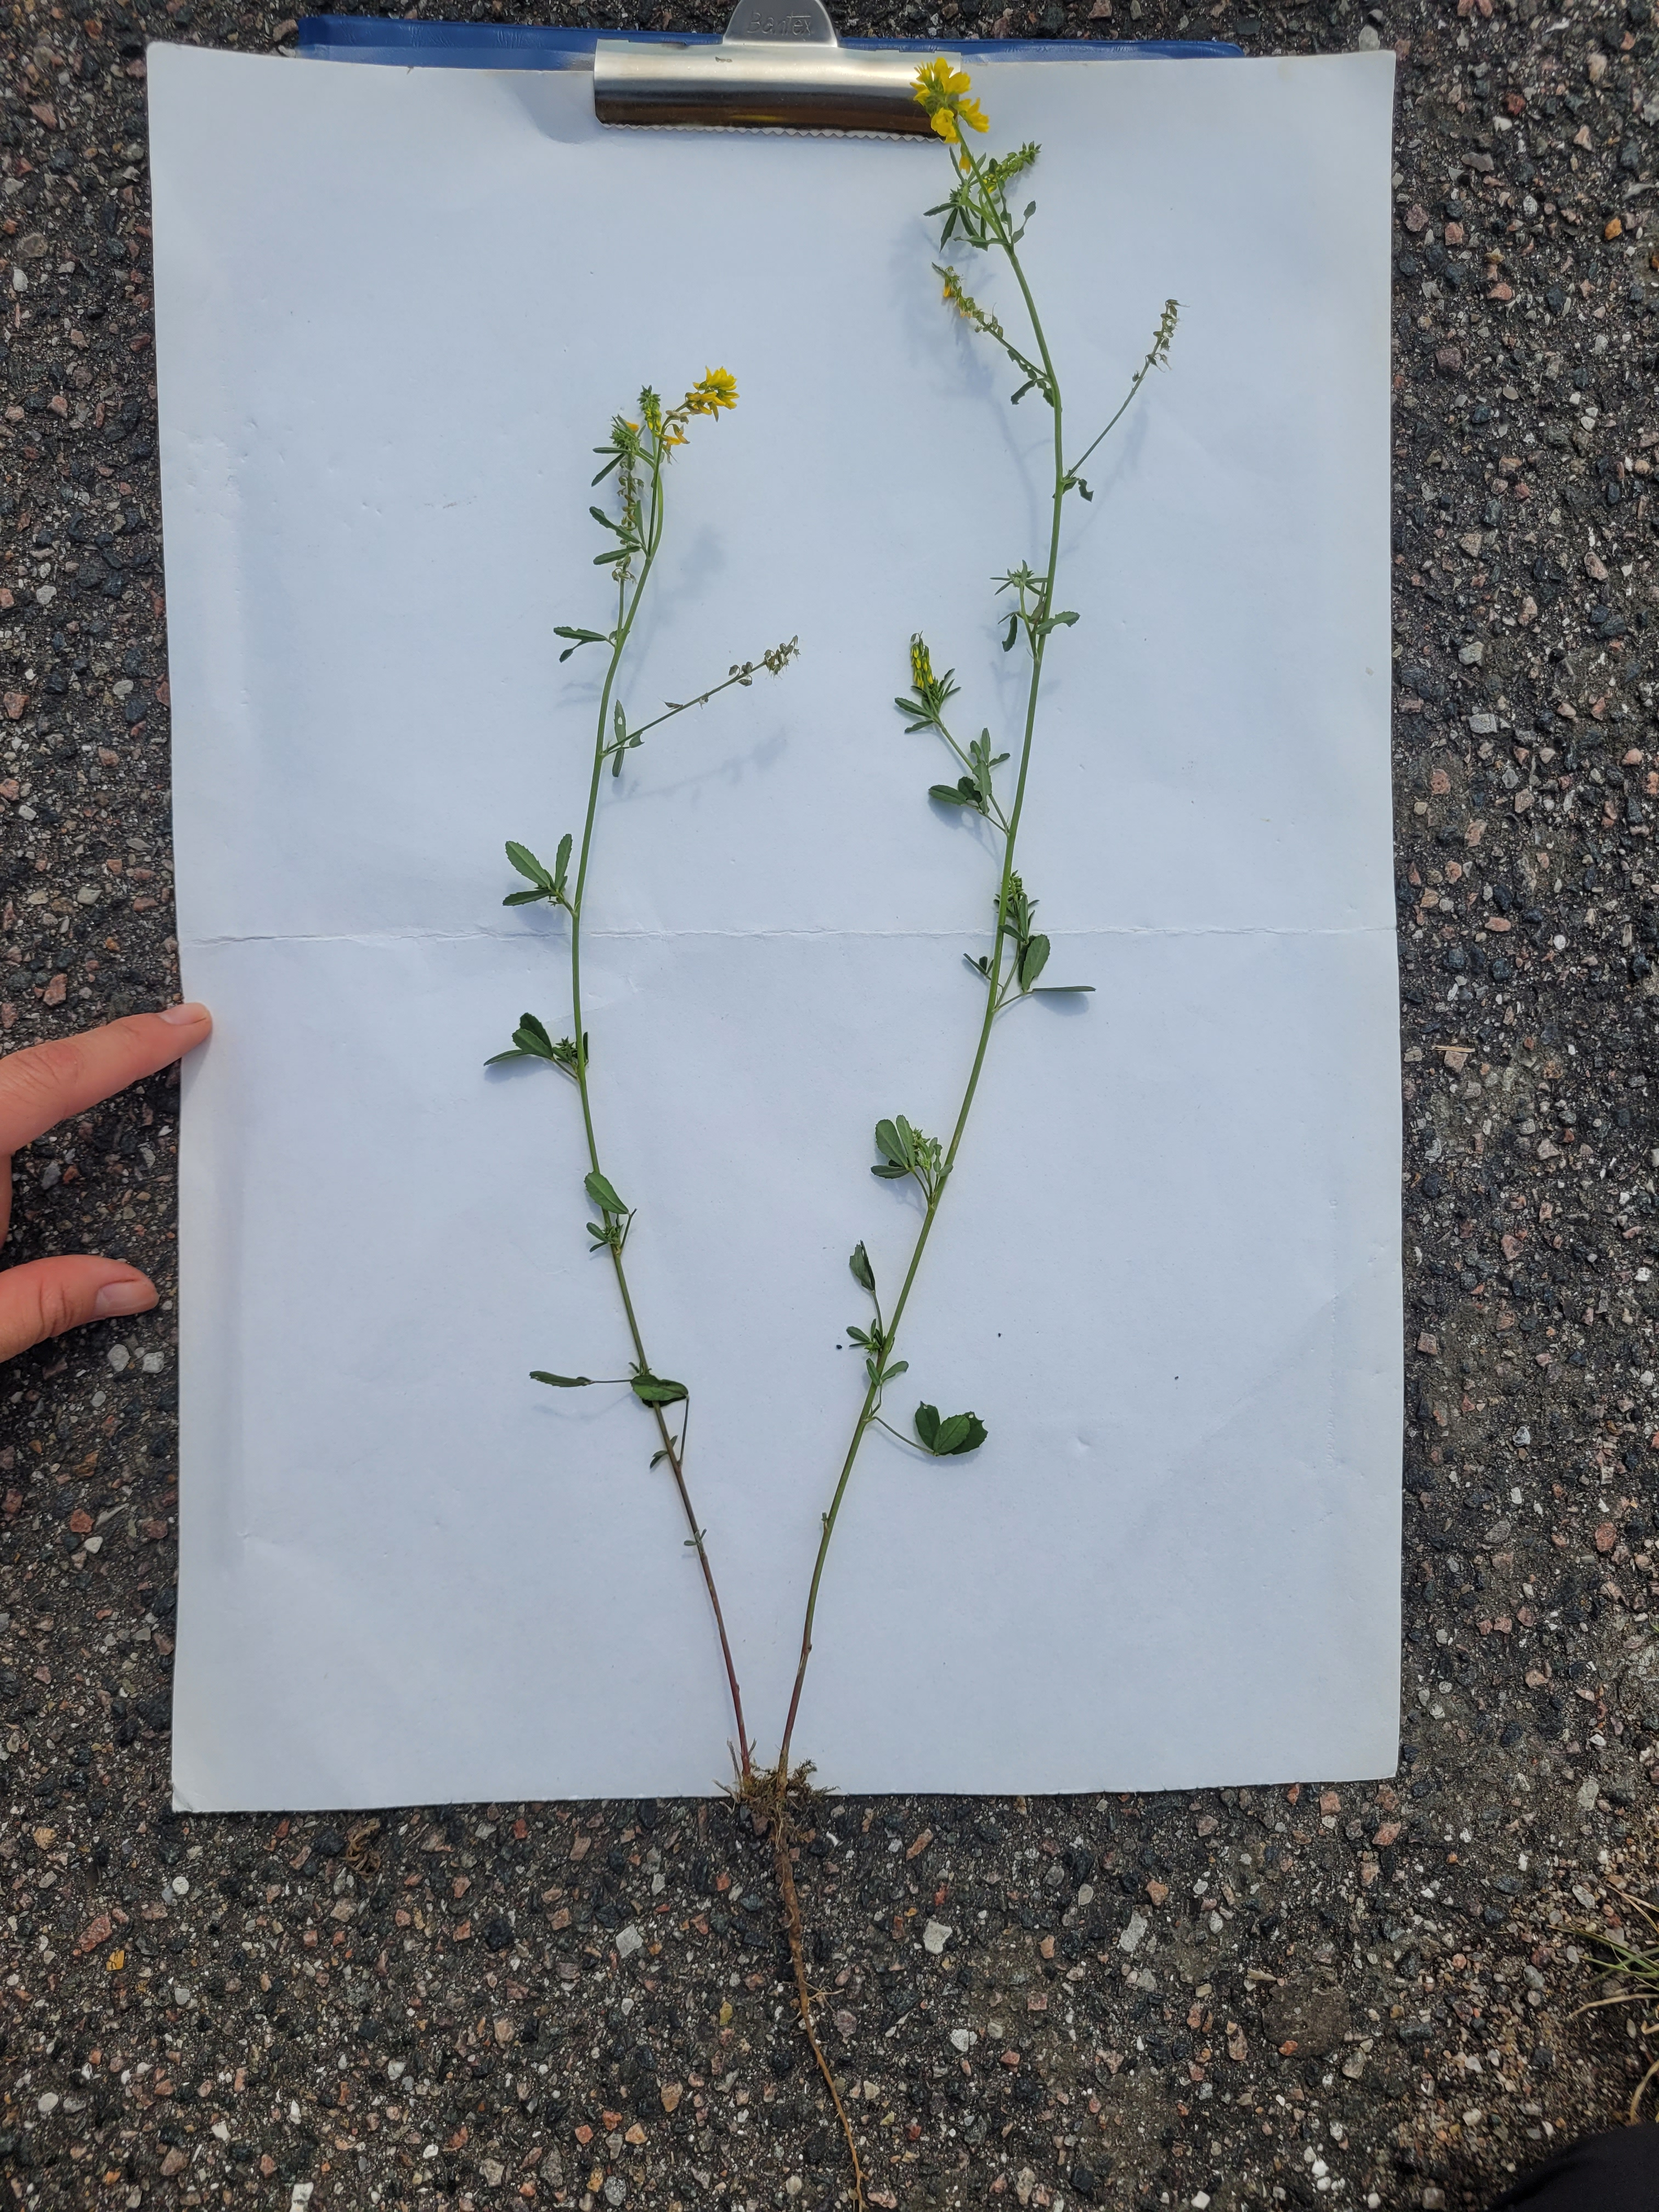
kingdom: Plantae
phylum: Tracheophyta
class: Magnoliopsida
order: Fabales
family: Fabaceae
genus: Melilotus
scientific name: Melilotus altissimus
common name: Høj stenkløver
